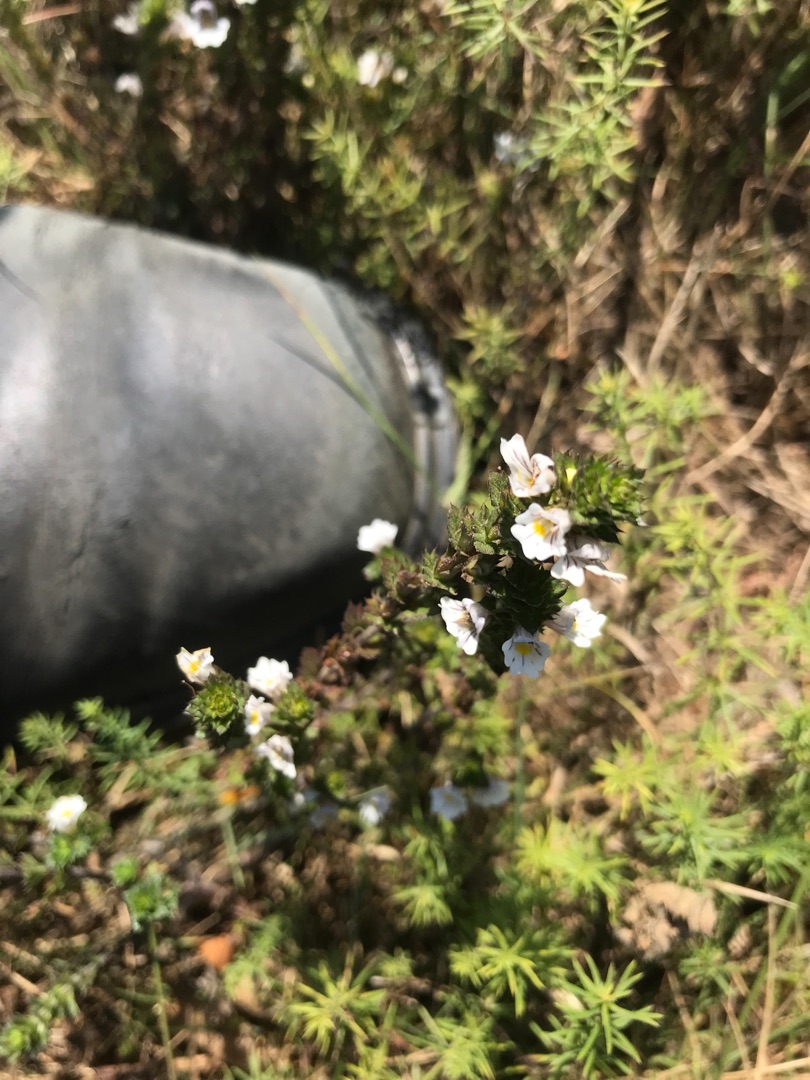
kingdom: Plantae
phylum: Tracheophyta
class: Magnoliopsida
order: Lamiales
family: Orobanchaceae
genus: Euphrasia
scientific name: Euphrasia stricta
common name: Spids øjentrøst
